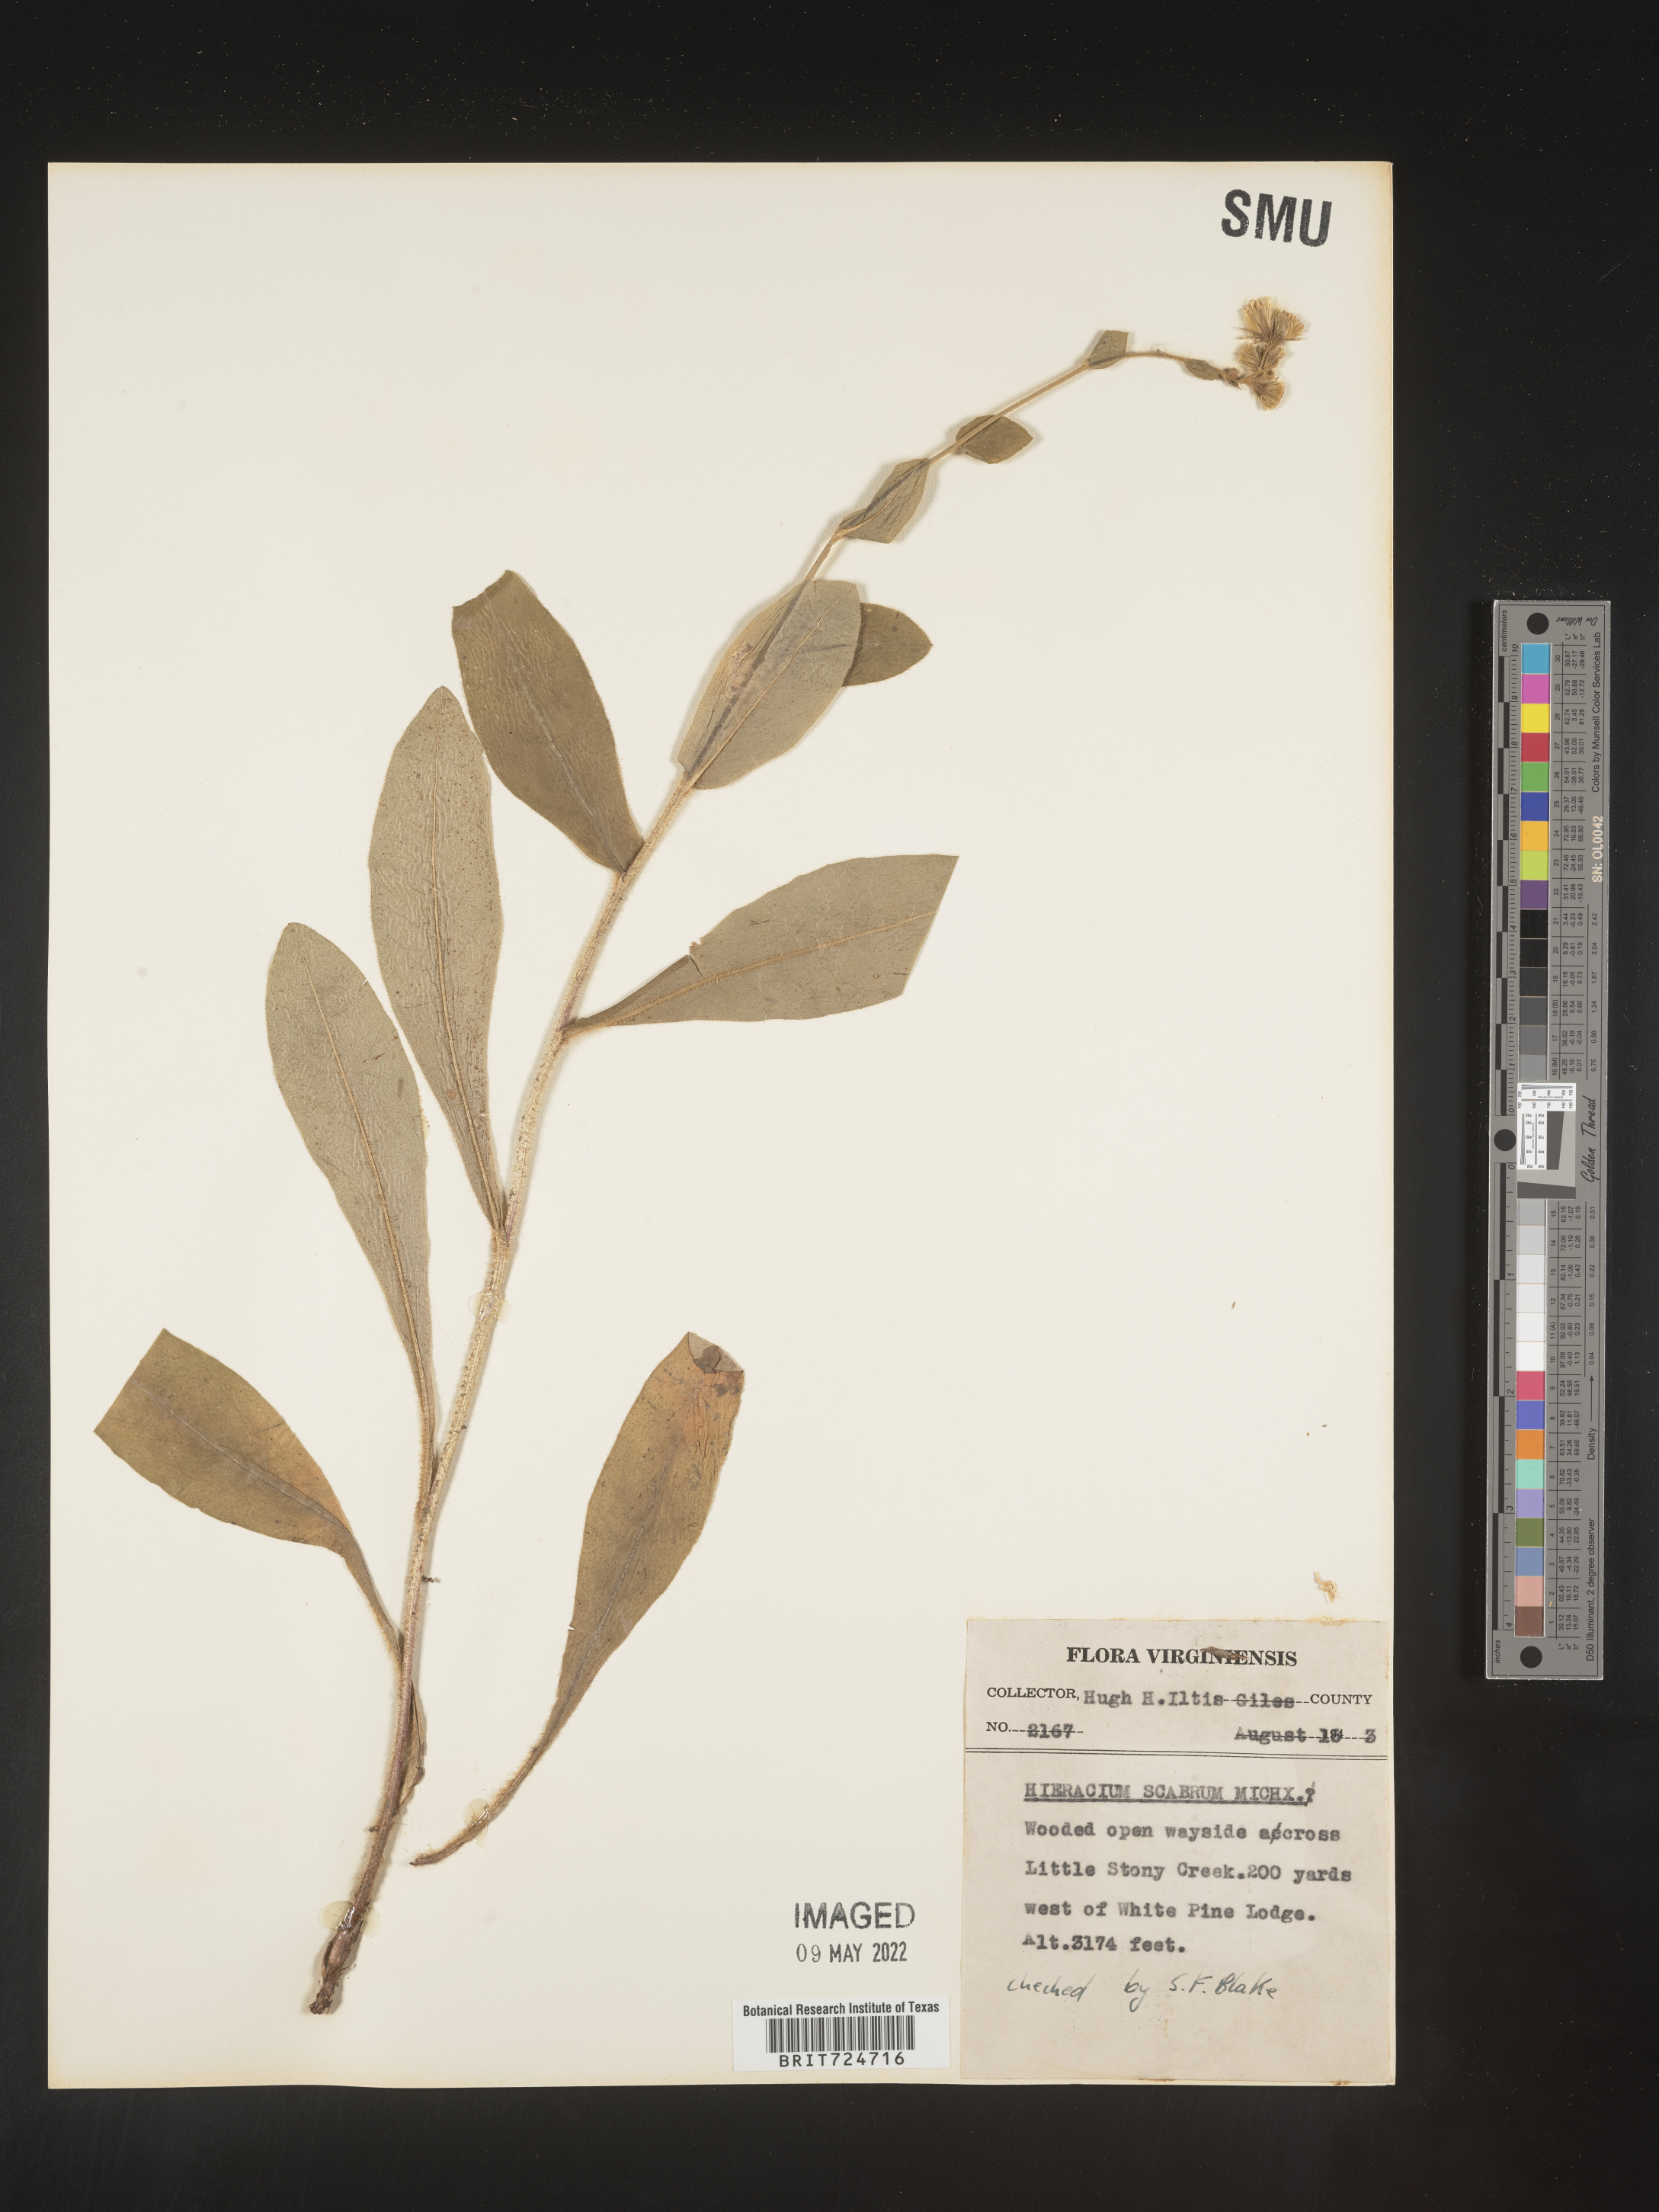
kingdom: Plantae
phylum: Tracheophyta
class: Magnoliopsida
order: Asterales
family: Asteraceae
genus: Hieracium
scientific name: Hieracium scabrum
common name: Rough hawkweed
